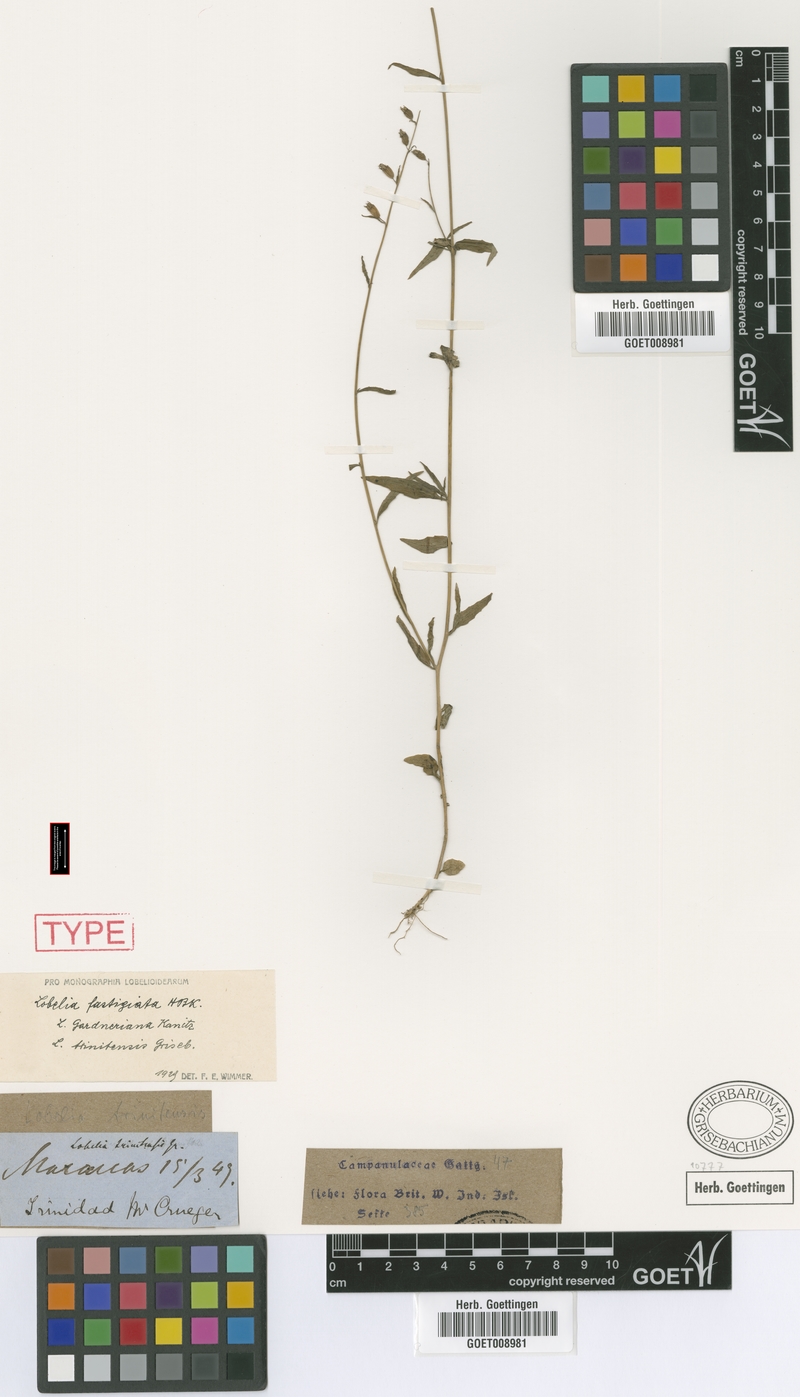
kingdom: Plantae
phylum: Tracheophyta
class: Magnoliopsida
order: Asterales
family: Campanulaceae
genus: Lobelia
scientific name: Lobelia fastigiata
